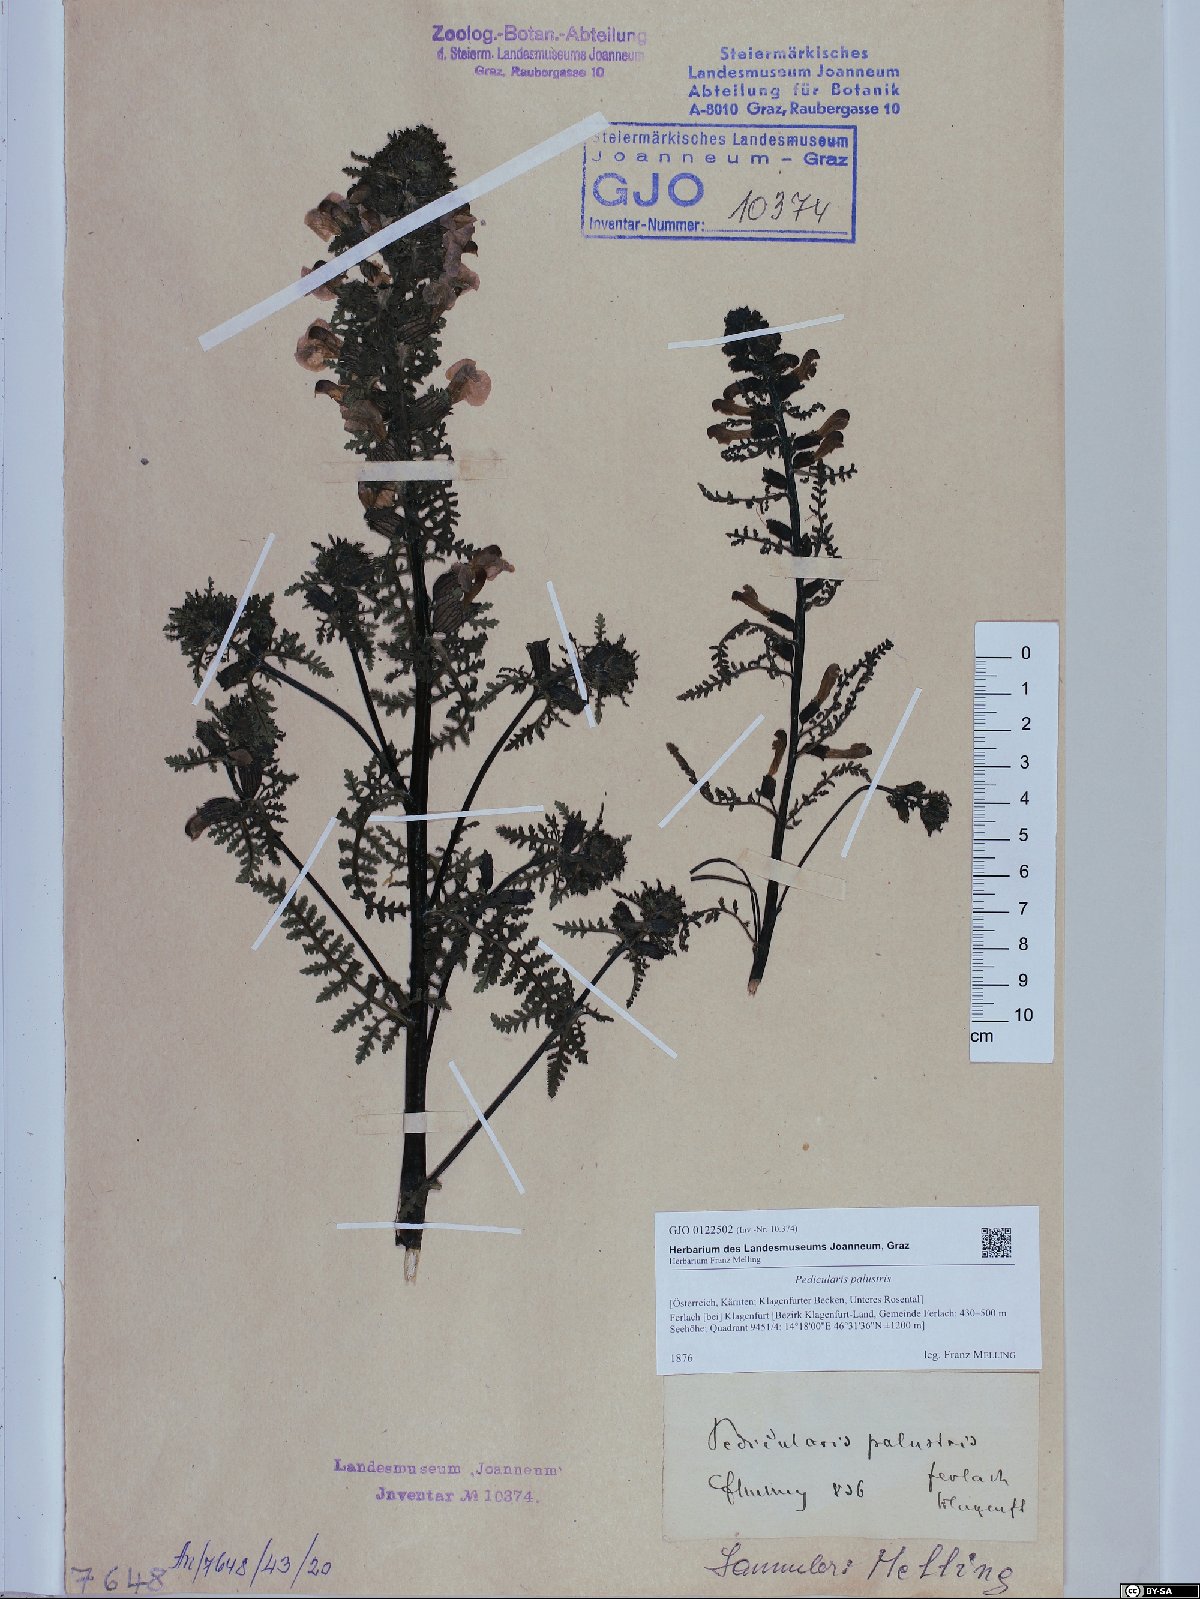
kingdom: Plantae
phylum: Tracheophyta
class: Magnoliopsida
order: Lamiales
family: Orobanchaceae
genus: Pedicularis
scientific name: Pedicularis palustris
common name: Marsh lousewort
